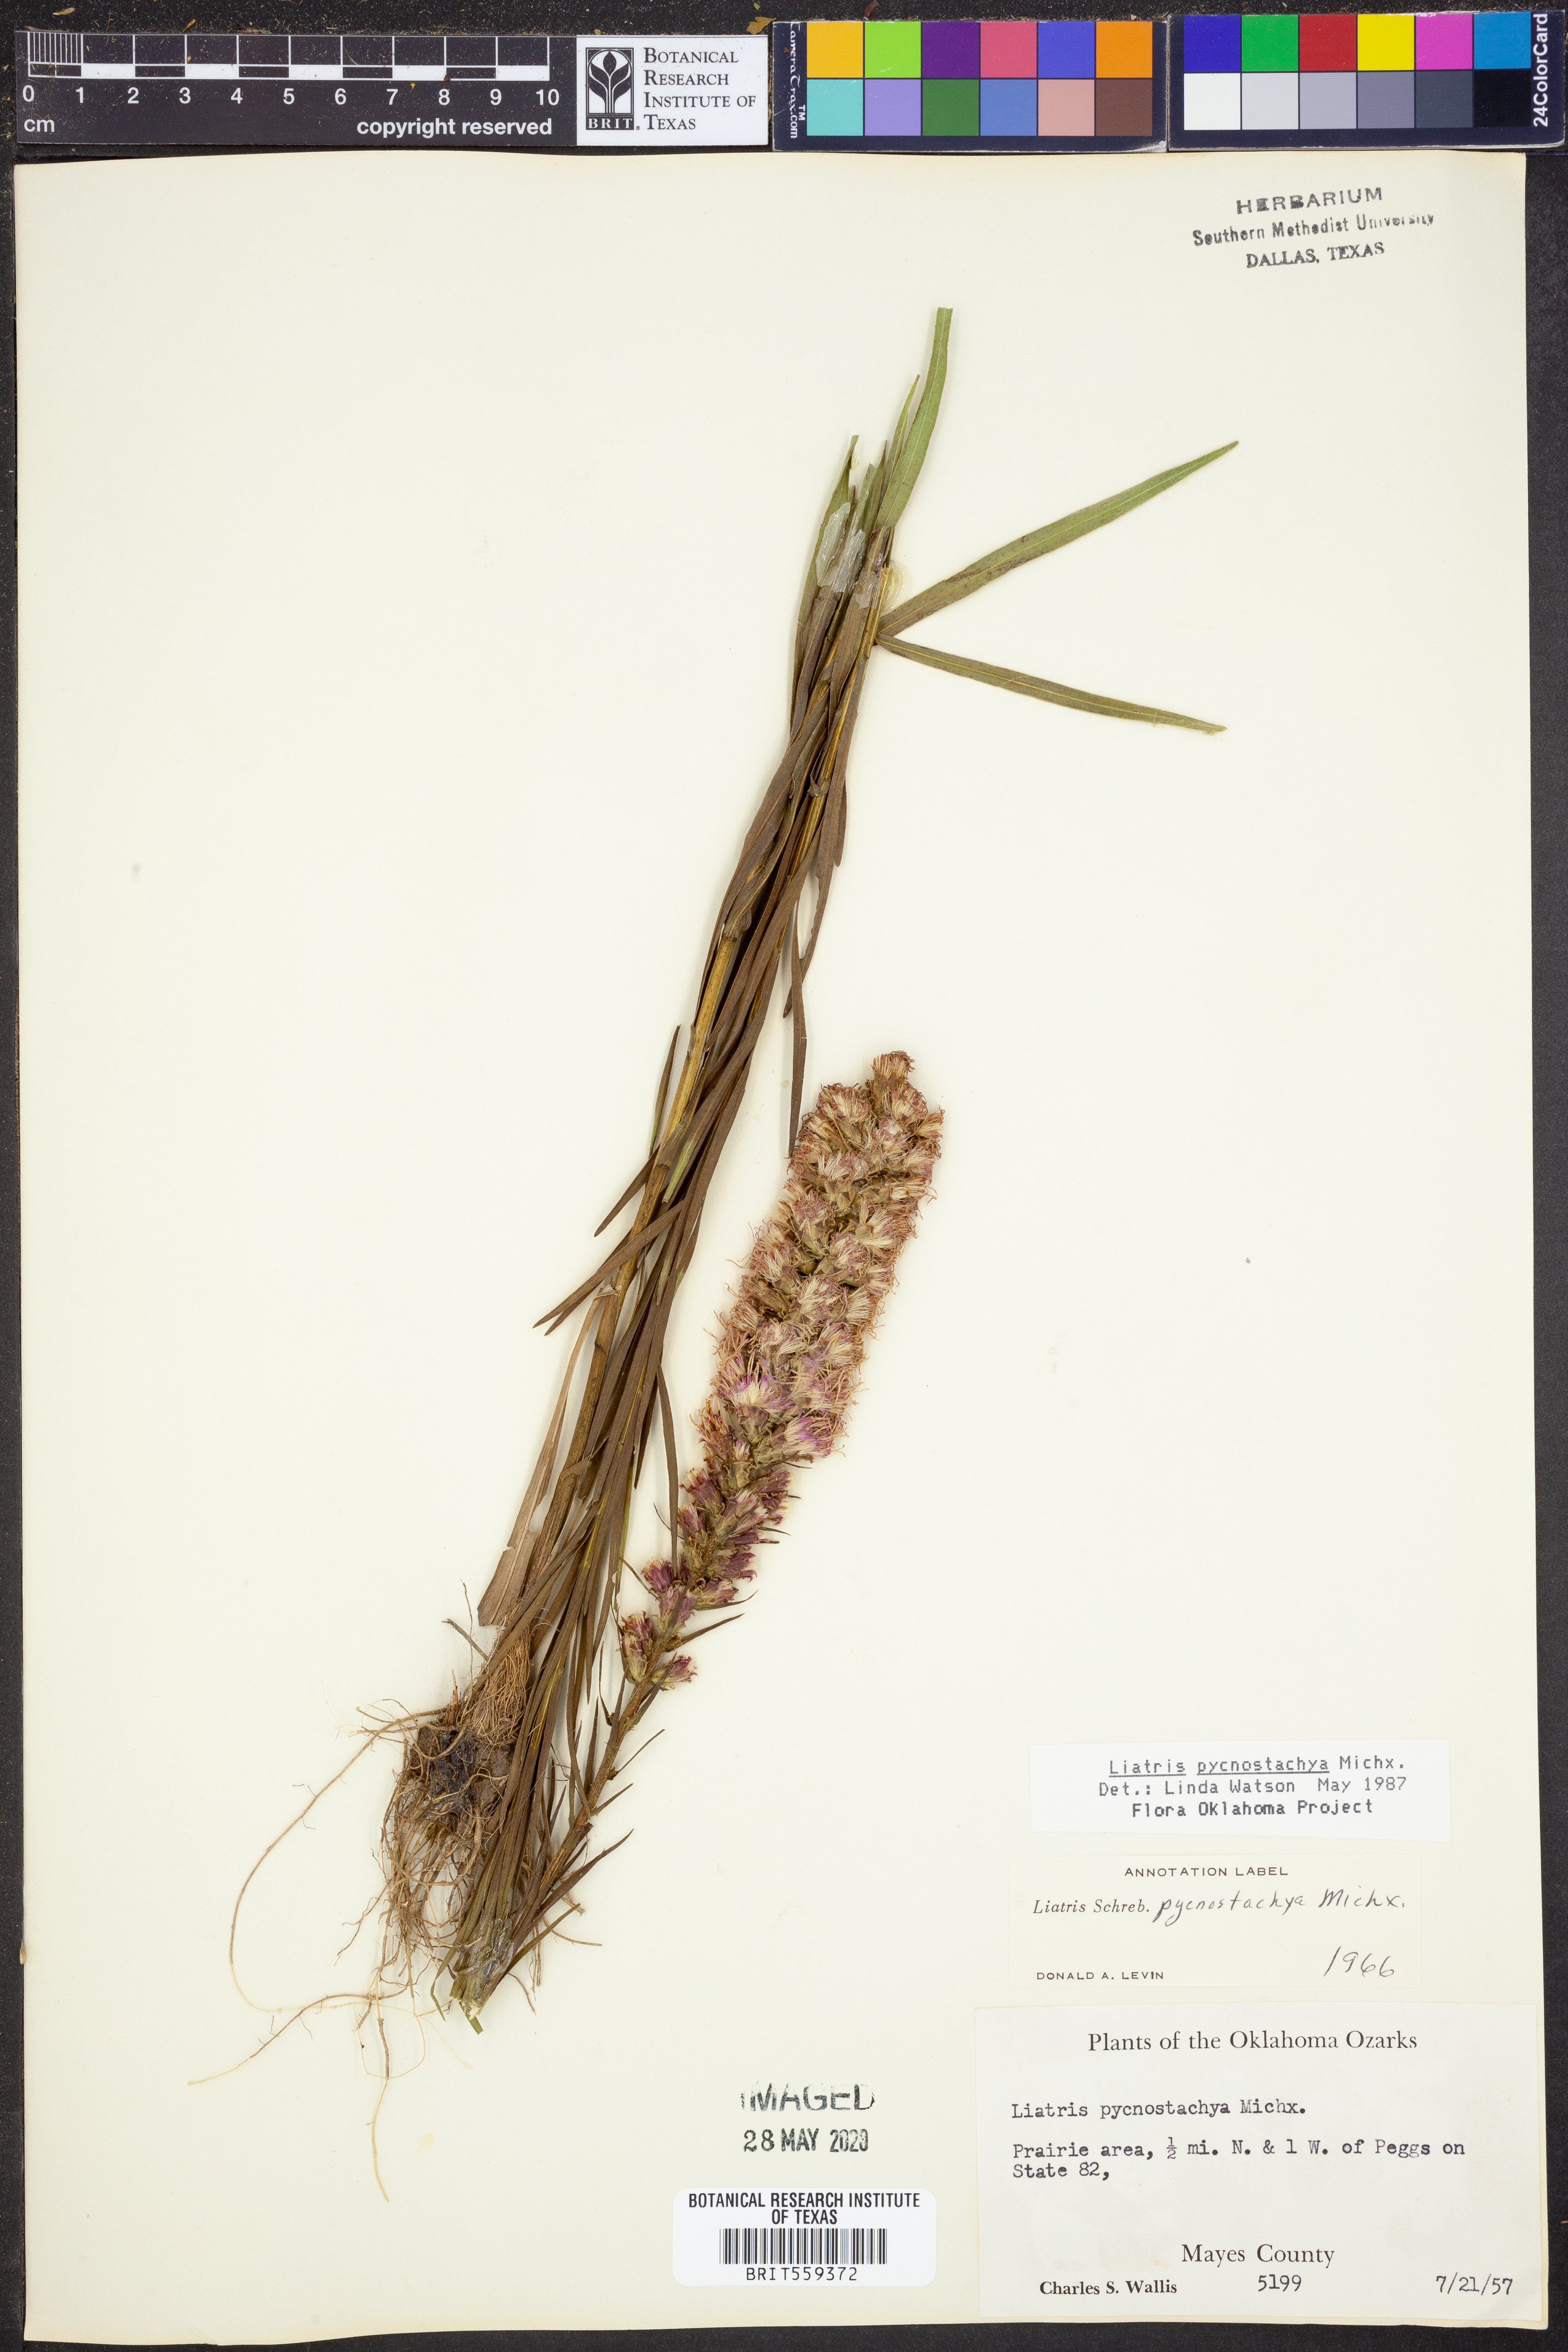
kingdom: Plantae
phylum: Tracheophyta
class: Magnoliopsida
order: Asterales
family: Asteraceae
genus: Liatris
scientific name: Liatris pycnostachya
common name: Cattail gayfeather
